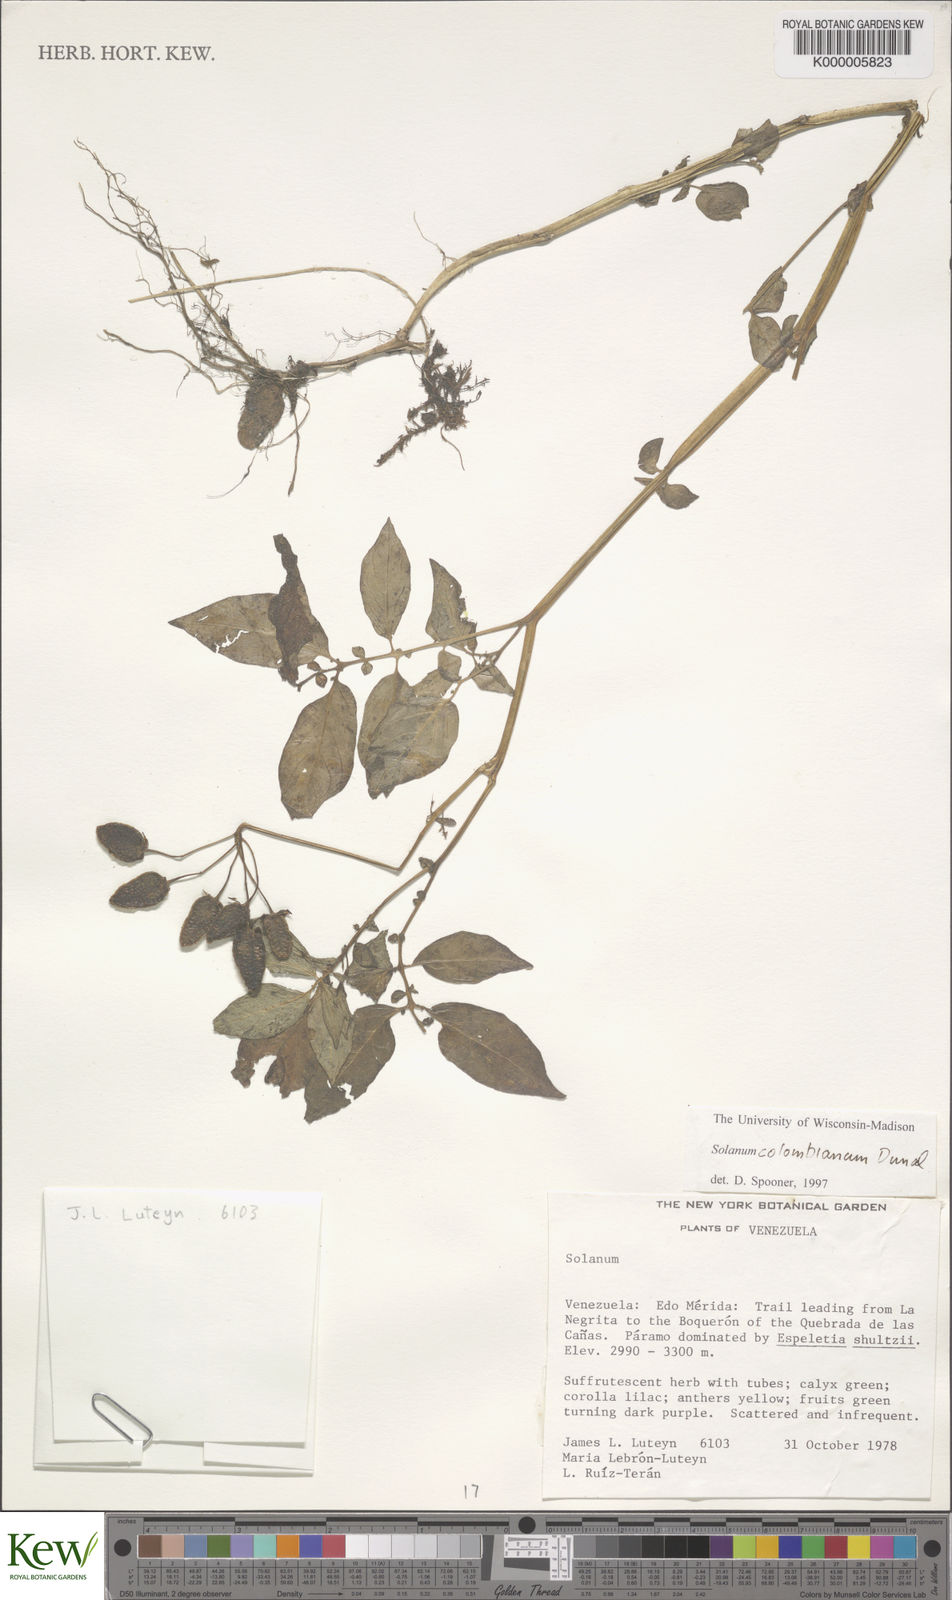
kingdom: Plantae
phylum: Tracheophyta
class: Magnoliopsida
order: Solanales
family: Solanaceae
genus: Solanum
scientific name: Solanum colombianum
